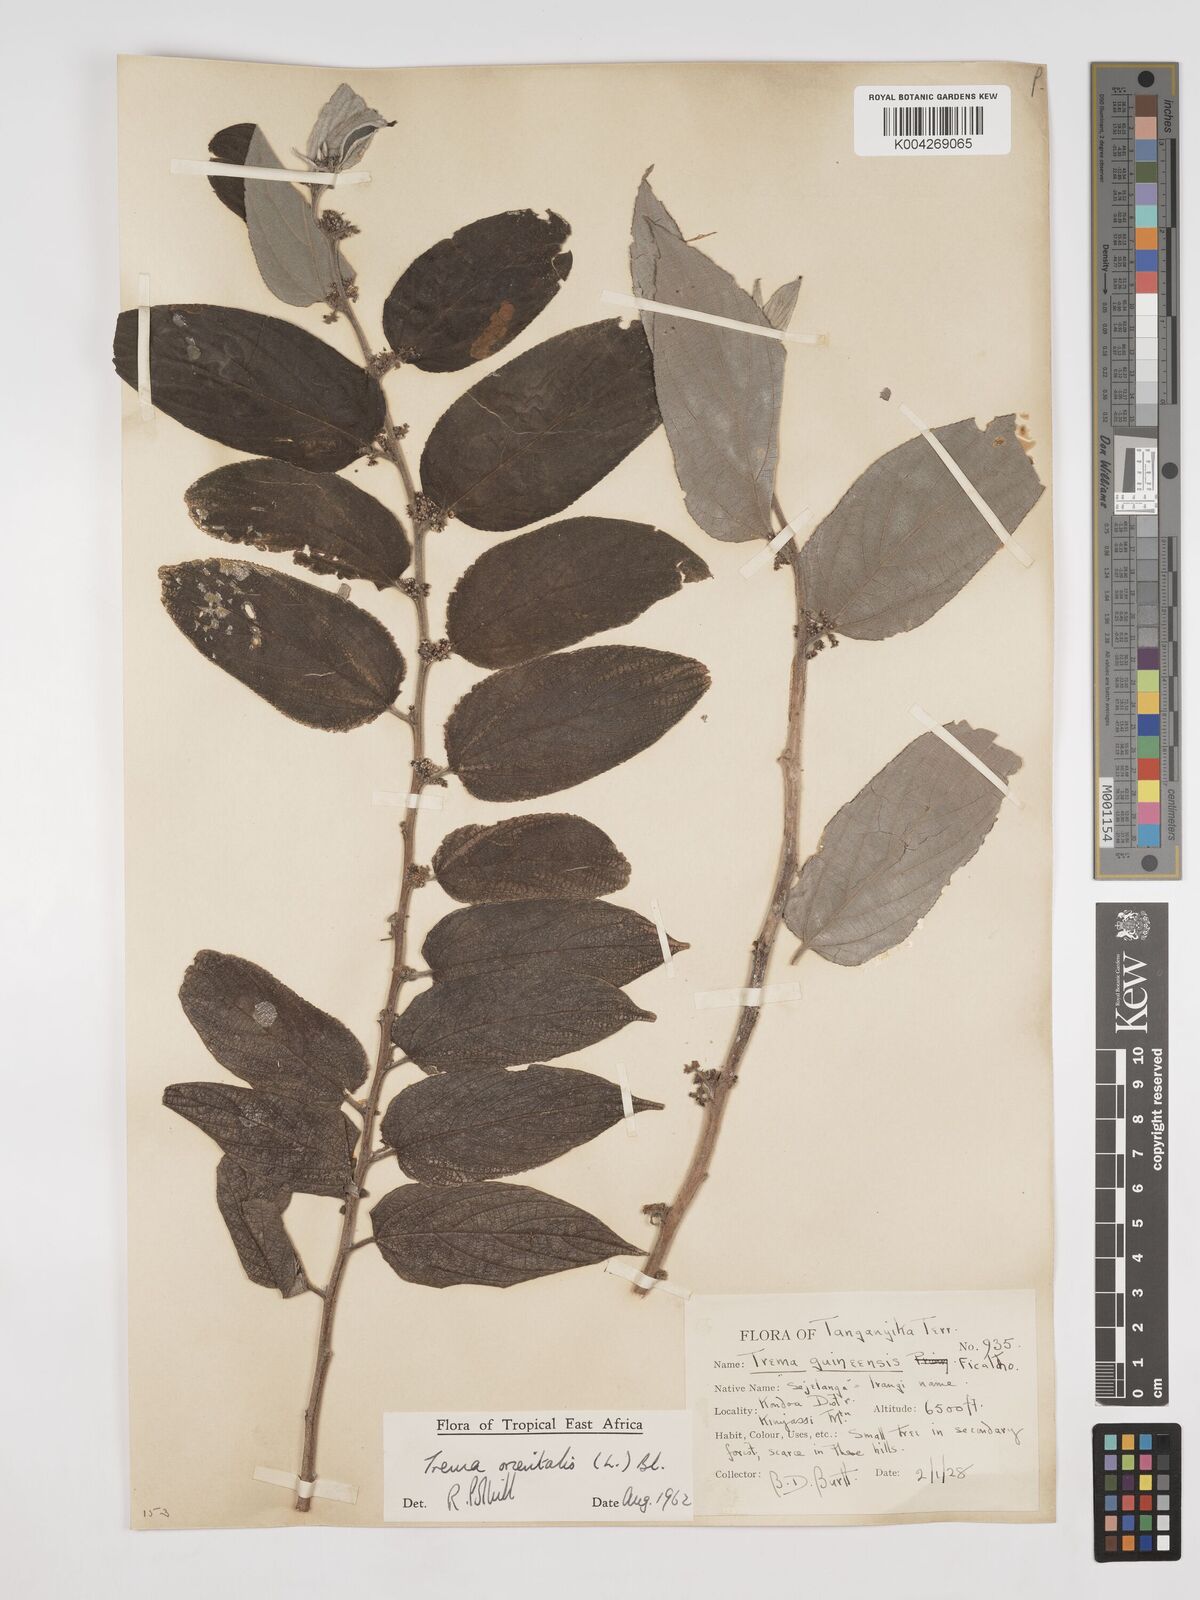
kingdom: Plantae
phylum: Tracheophyta
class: Magnoliopsida
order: Rosales
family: Cannabaceae
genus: Trema
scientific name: Trema orientale
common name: Indian charcoal tree
